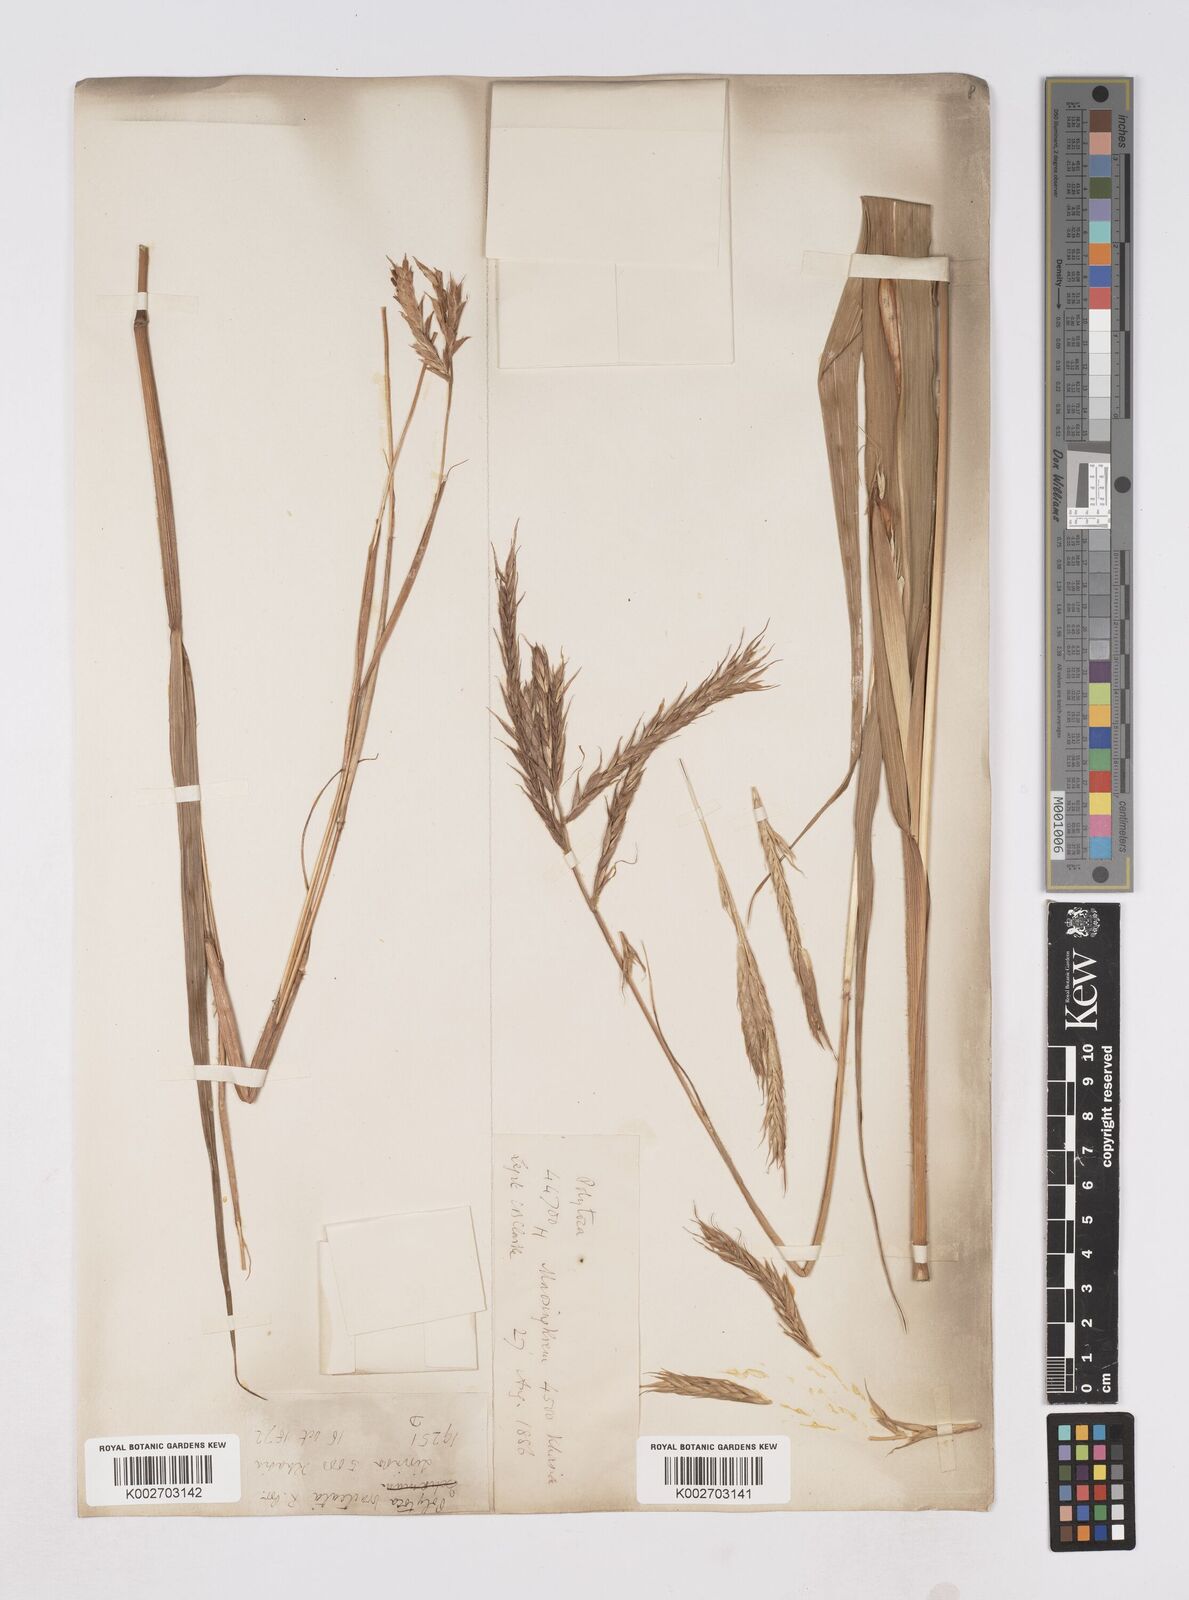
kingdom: Plantae
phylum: Tracheophyta
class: Liliopsida
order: Poales
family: Poaceae
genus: Polytoca
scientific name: Polytoca digitata
